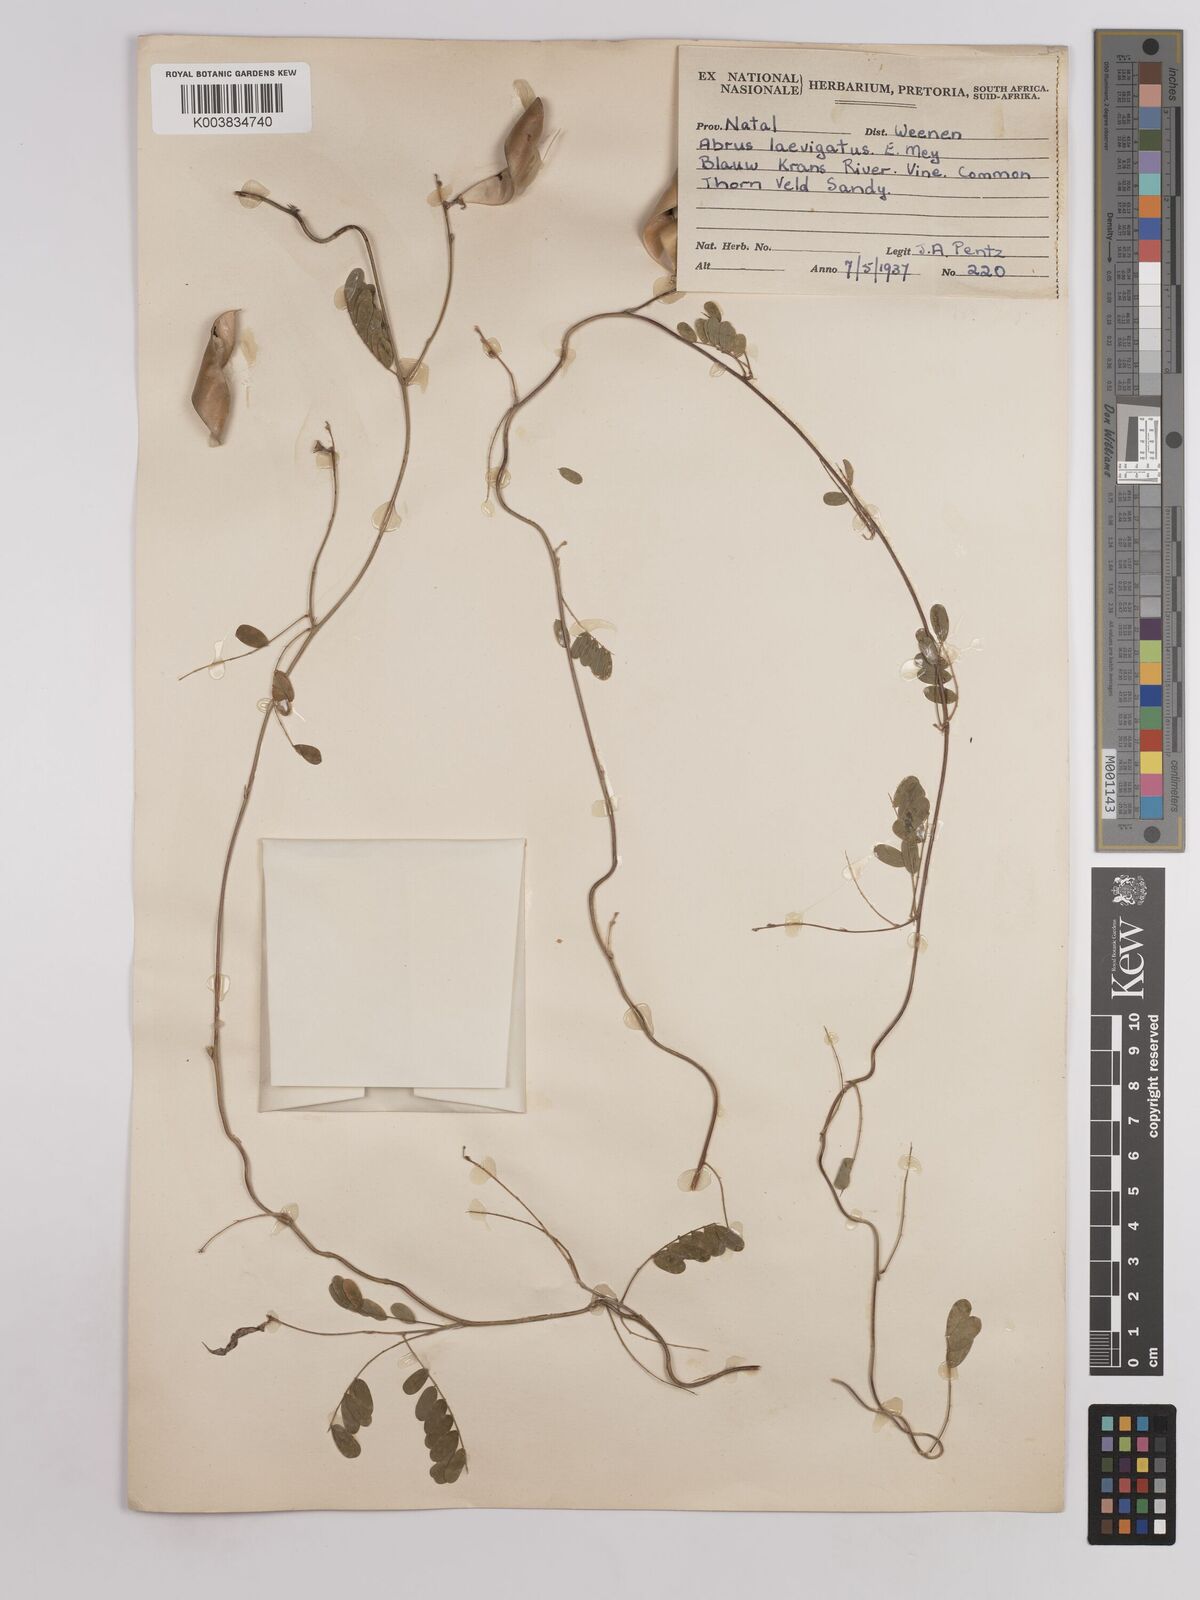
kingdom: Plantae
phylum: Tracheophyta
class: Magnoliopsida
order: Fabales
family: Fabaceae
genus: Abrus
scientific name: Abrus laevigatus
